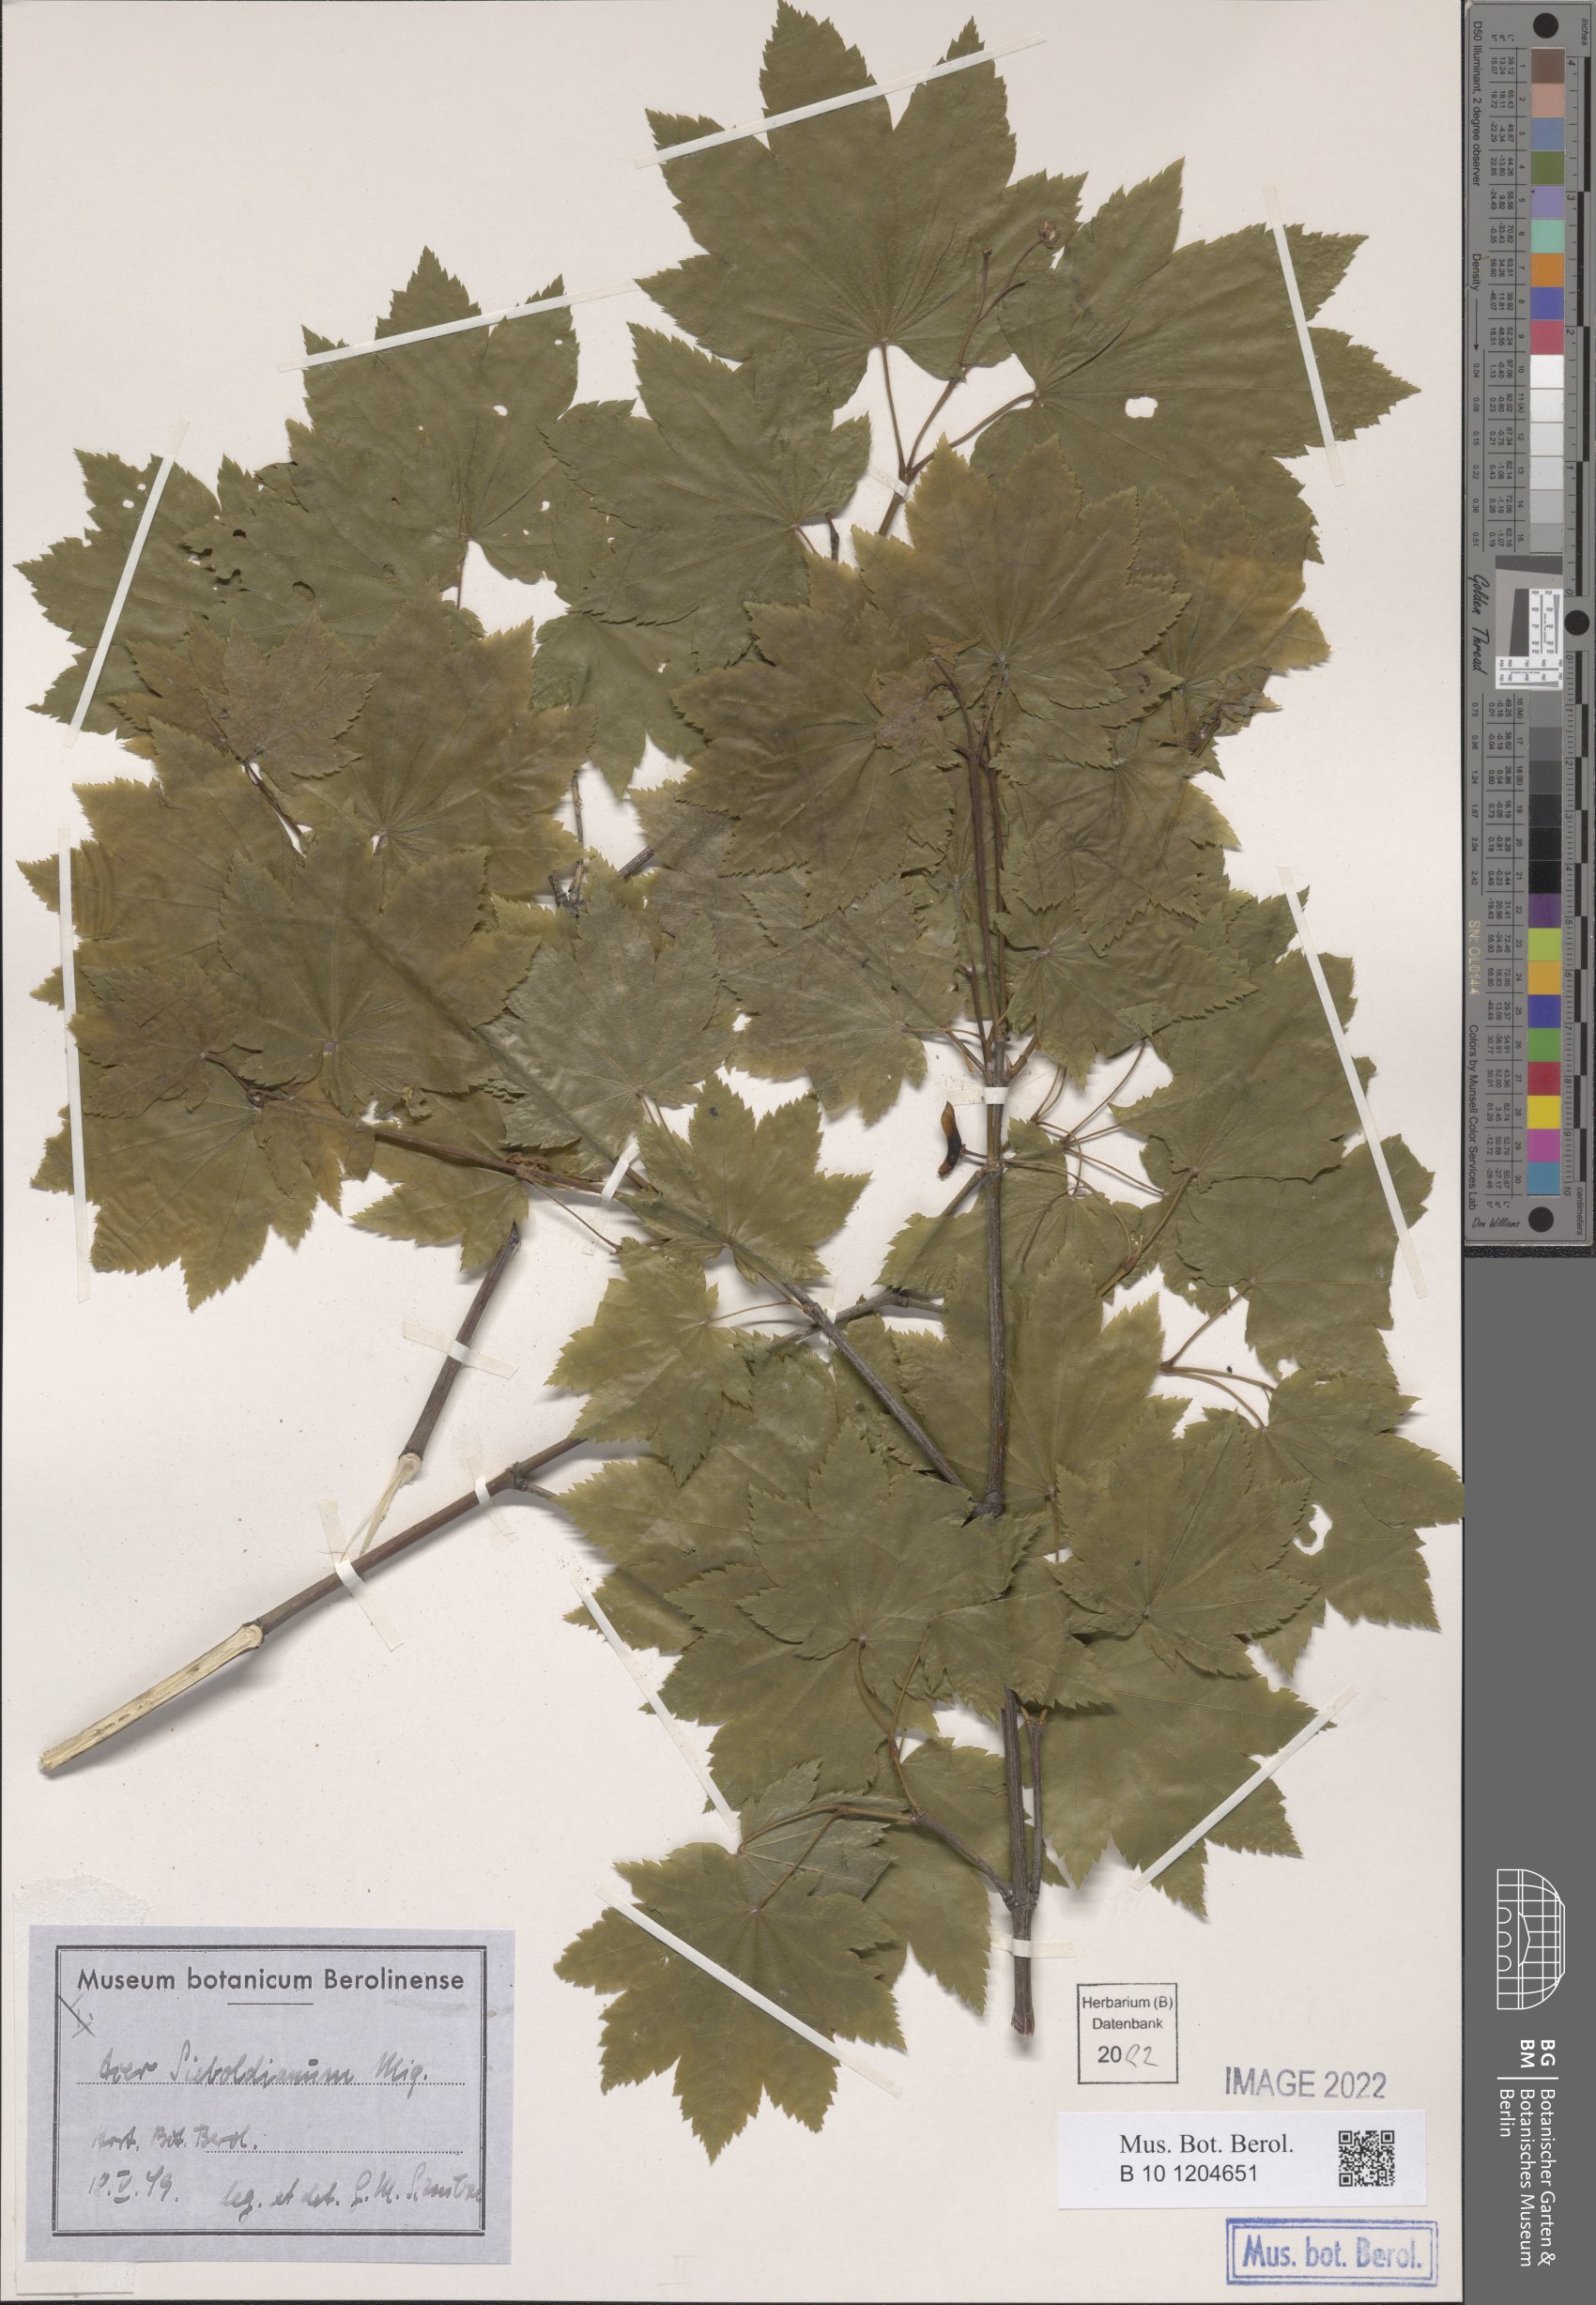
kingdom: Plantae
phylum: Tracheophyta
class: Magnoliopsida
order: Sapindales
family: Sapindaceae
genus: Acer
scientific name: Acer sieboldianum
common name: Siebold's maple
